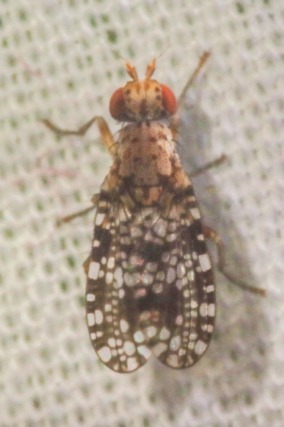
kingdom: Animalia
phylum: Arthropoda
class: Insecta
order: Diptera
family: Sciomyzidae
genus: Trypetoptera
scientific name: Trypetoptera punctulata
